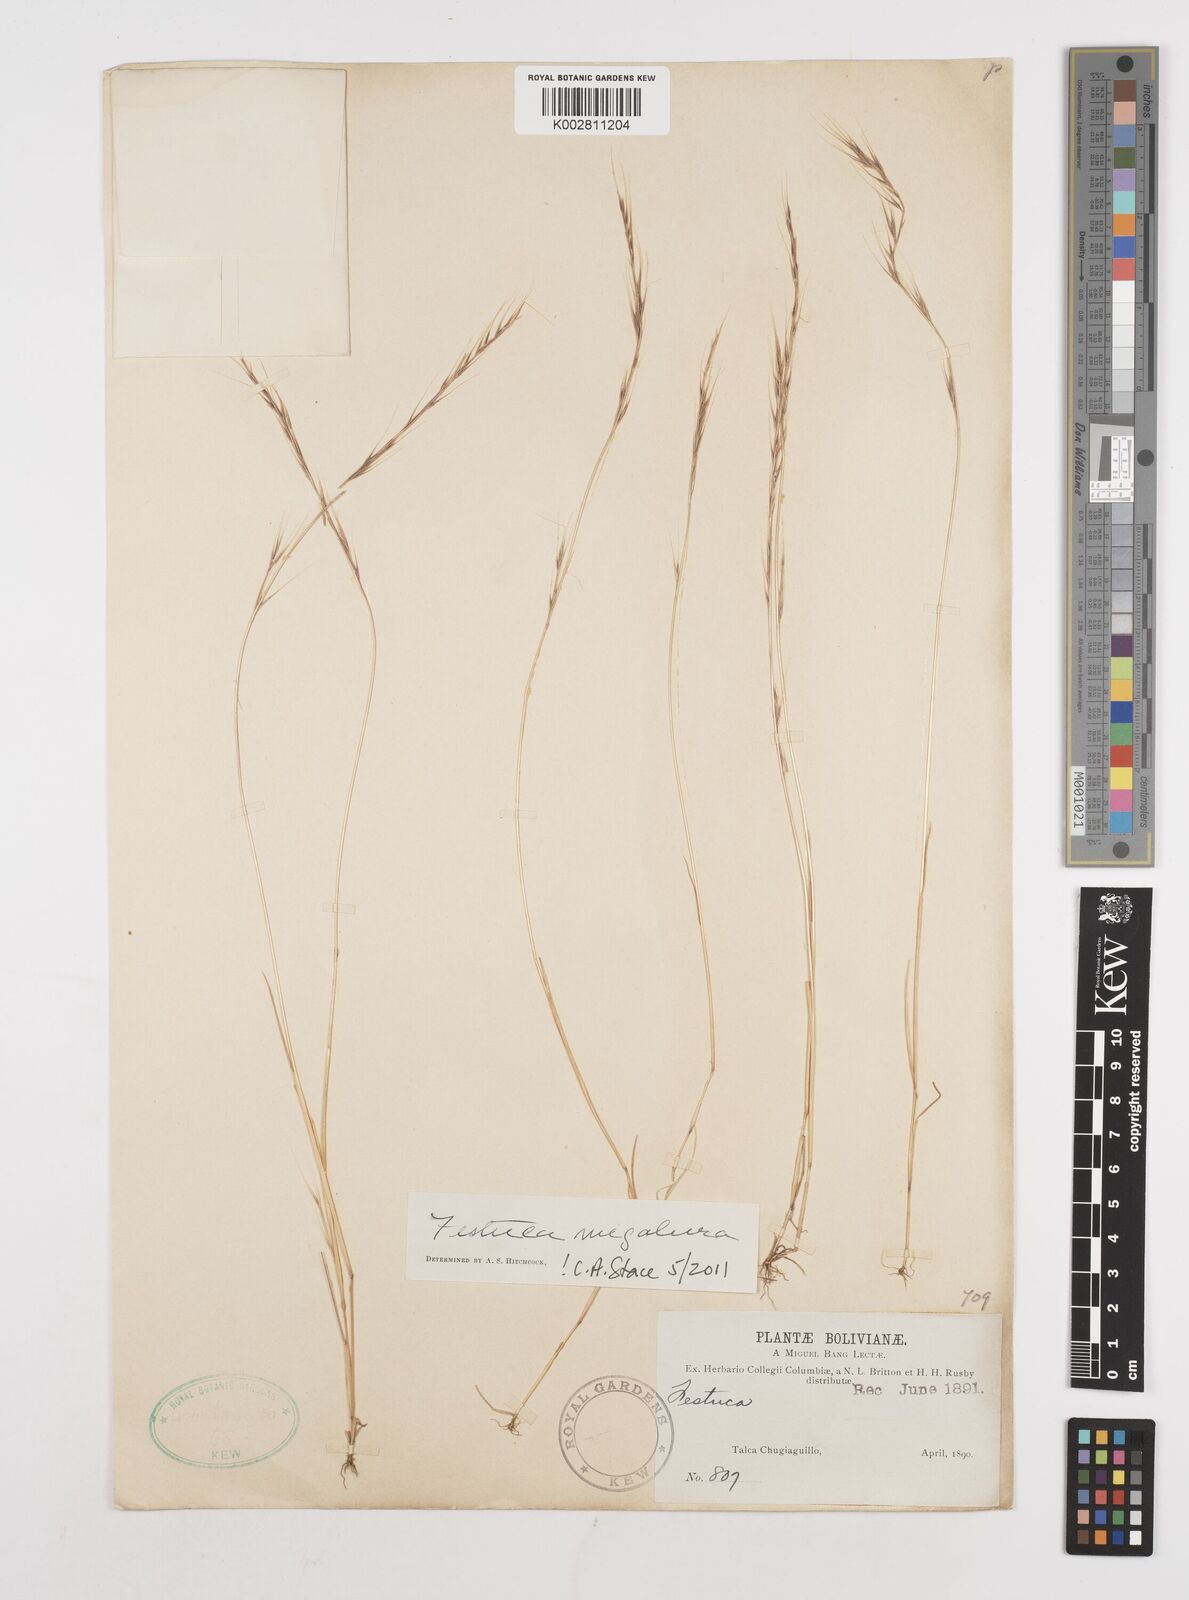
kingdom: Plantae
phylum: Tracheophyta
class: Liliopsida
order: Poales
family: Poaceae
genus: Festuca
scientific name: Festuca myuros
